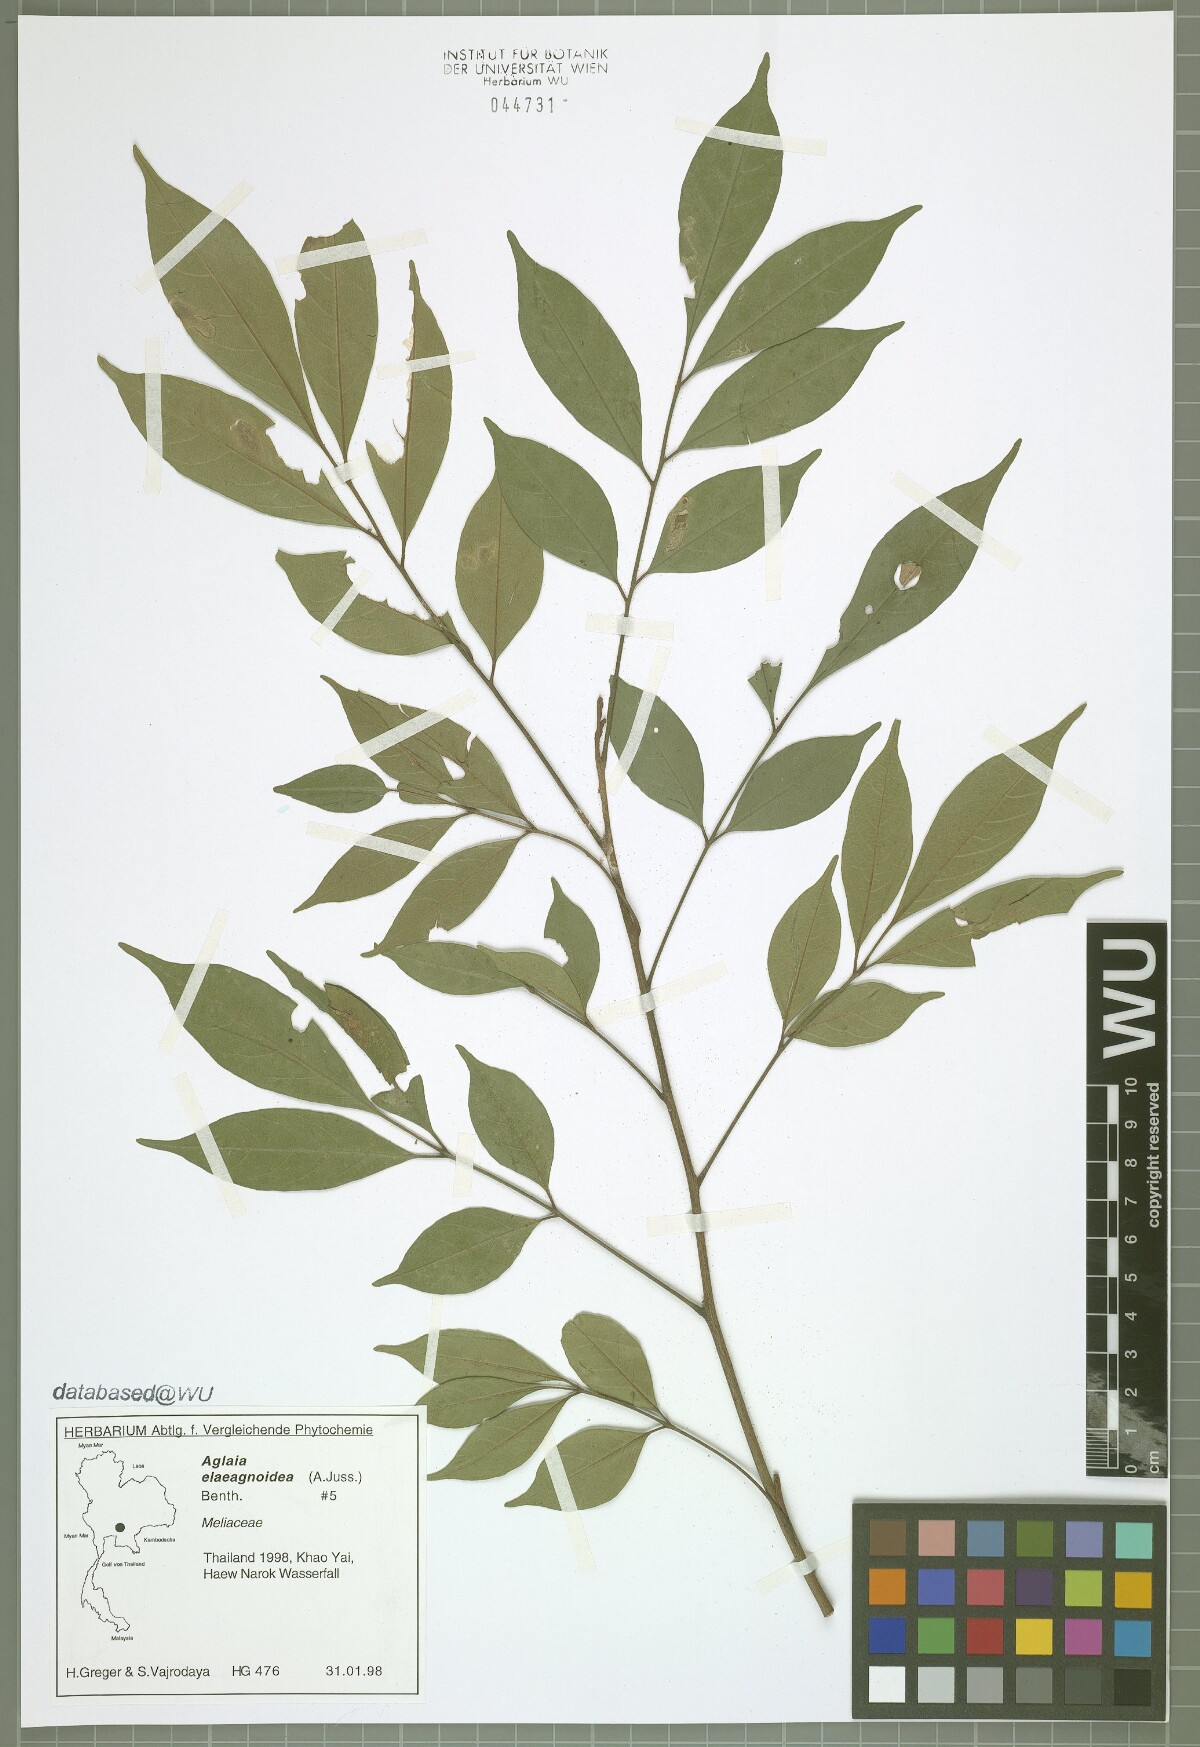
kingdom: Plantae
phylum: Tracheophyta
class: Magnoliopsida
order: Sapindales
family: Meliaceae
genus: Aglaia
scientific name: Aglaia elaeagnoidea
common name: Droopyleaf
